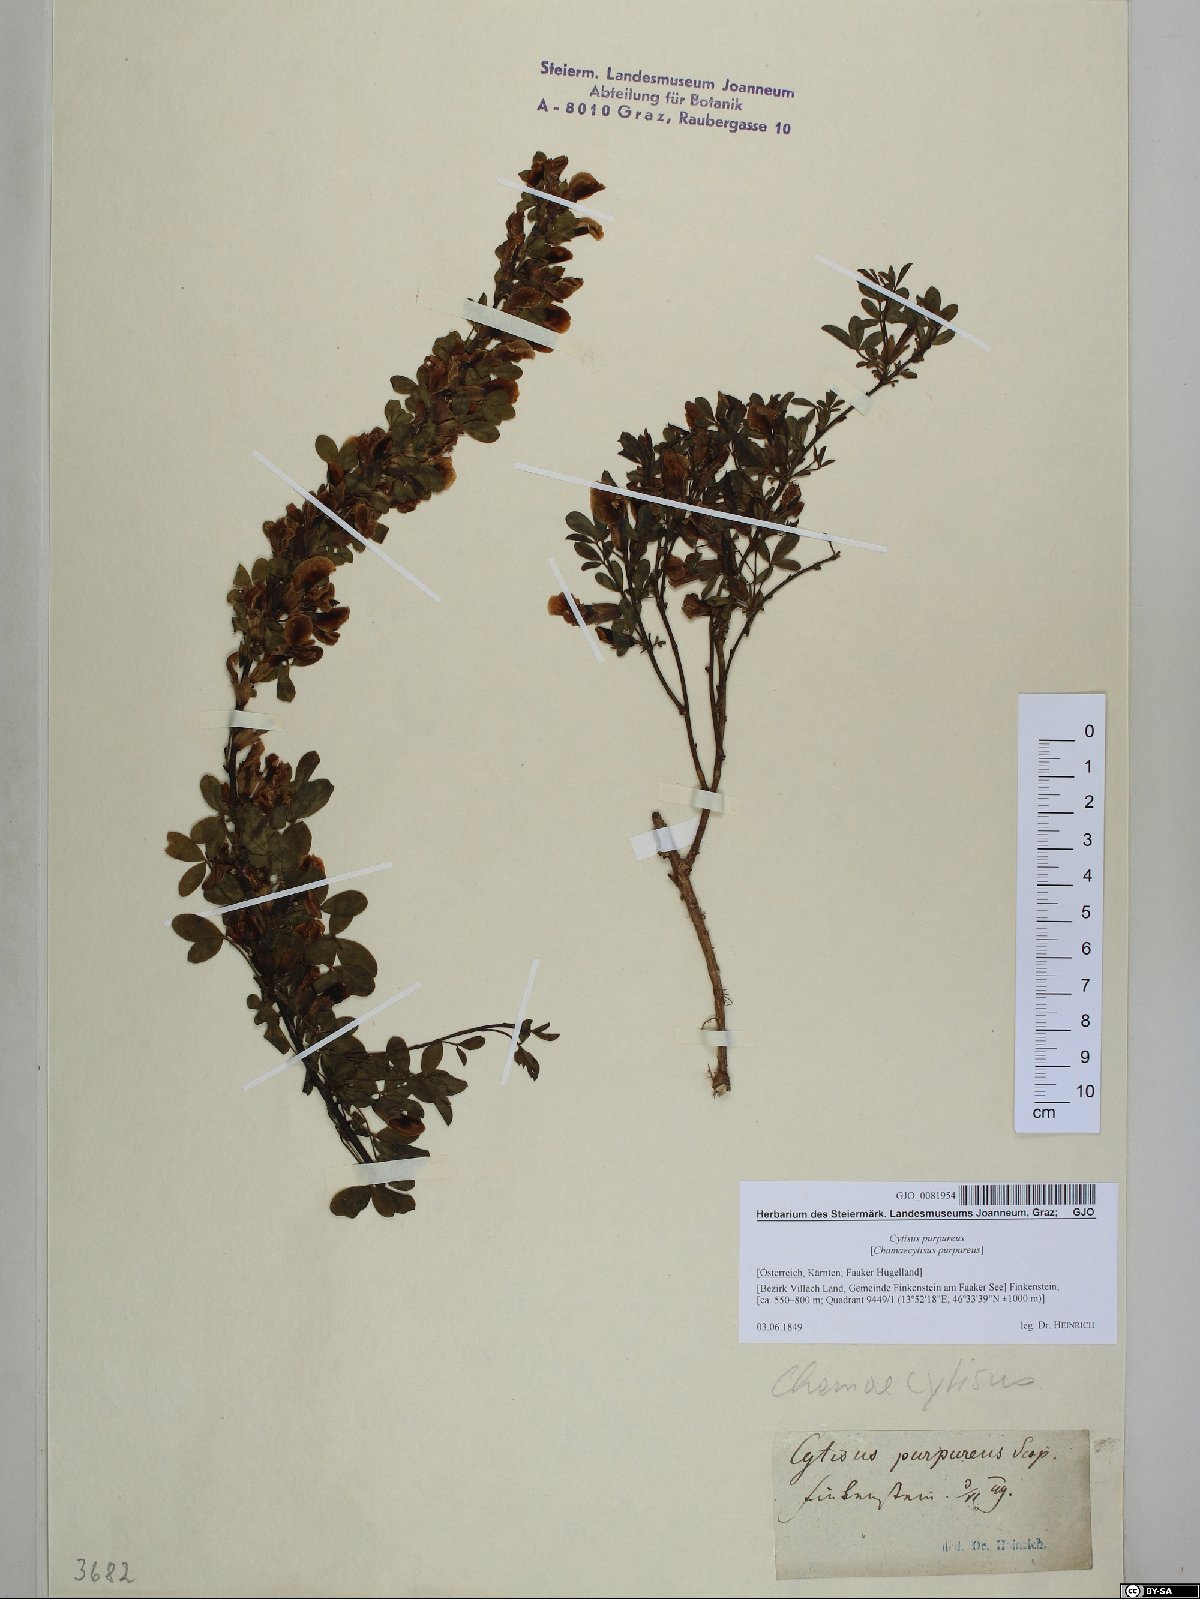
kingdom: Plantae
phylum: Tracheophyta
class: Magnoliopsida
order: Fabales
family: Fabaceae
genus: Chamaecytisus
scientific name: Chamaecytisus purpureus
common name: Purple broom
